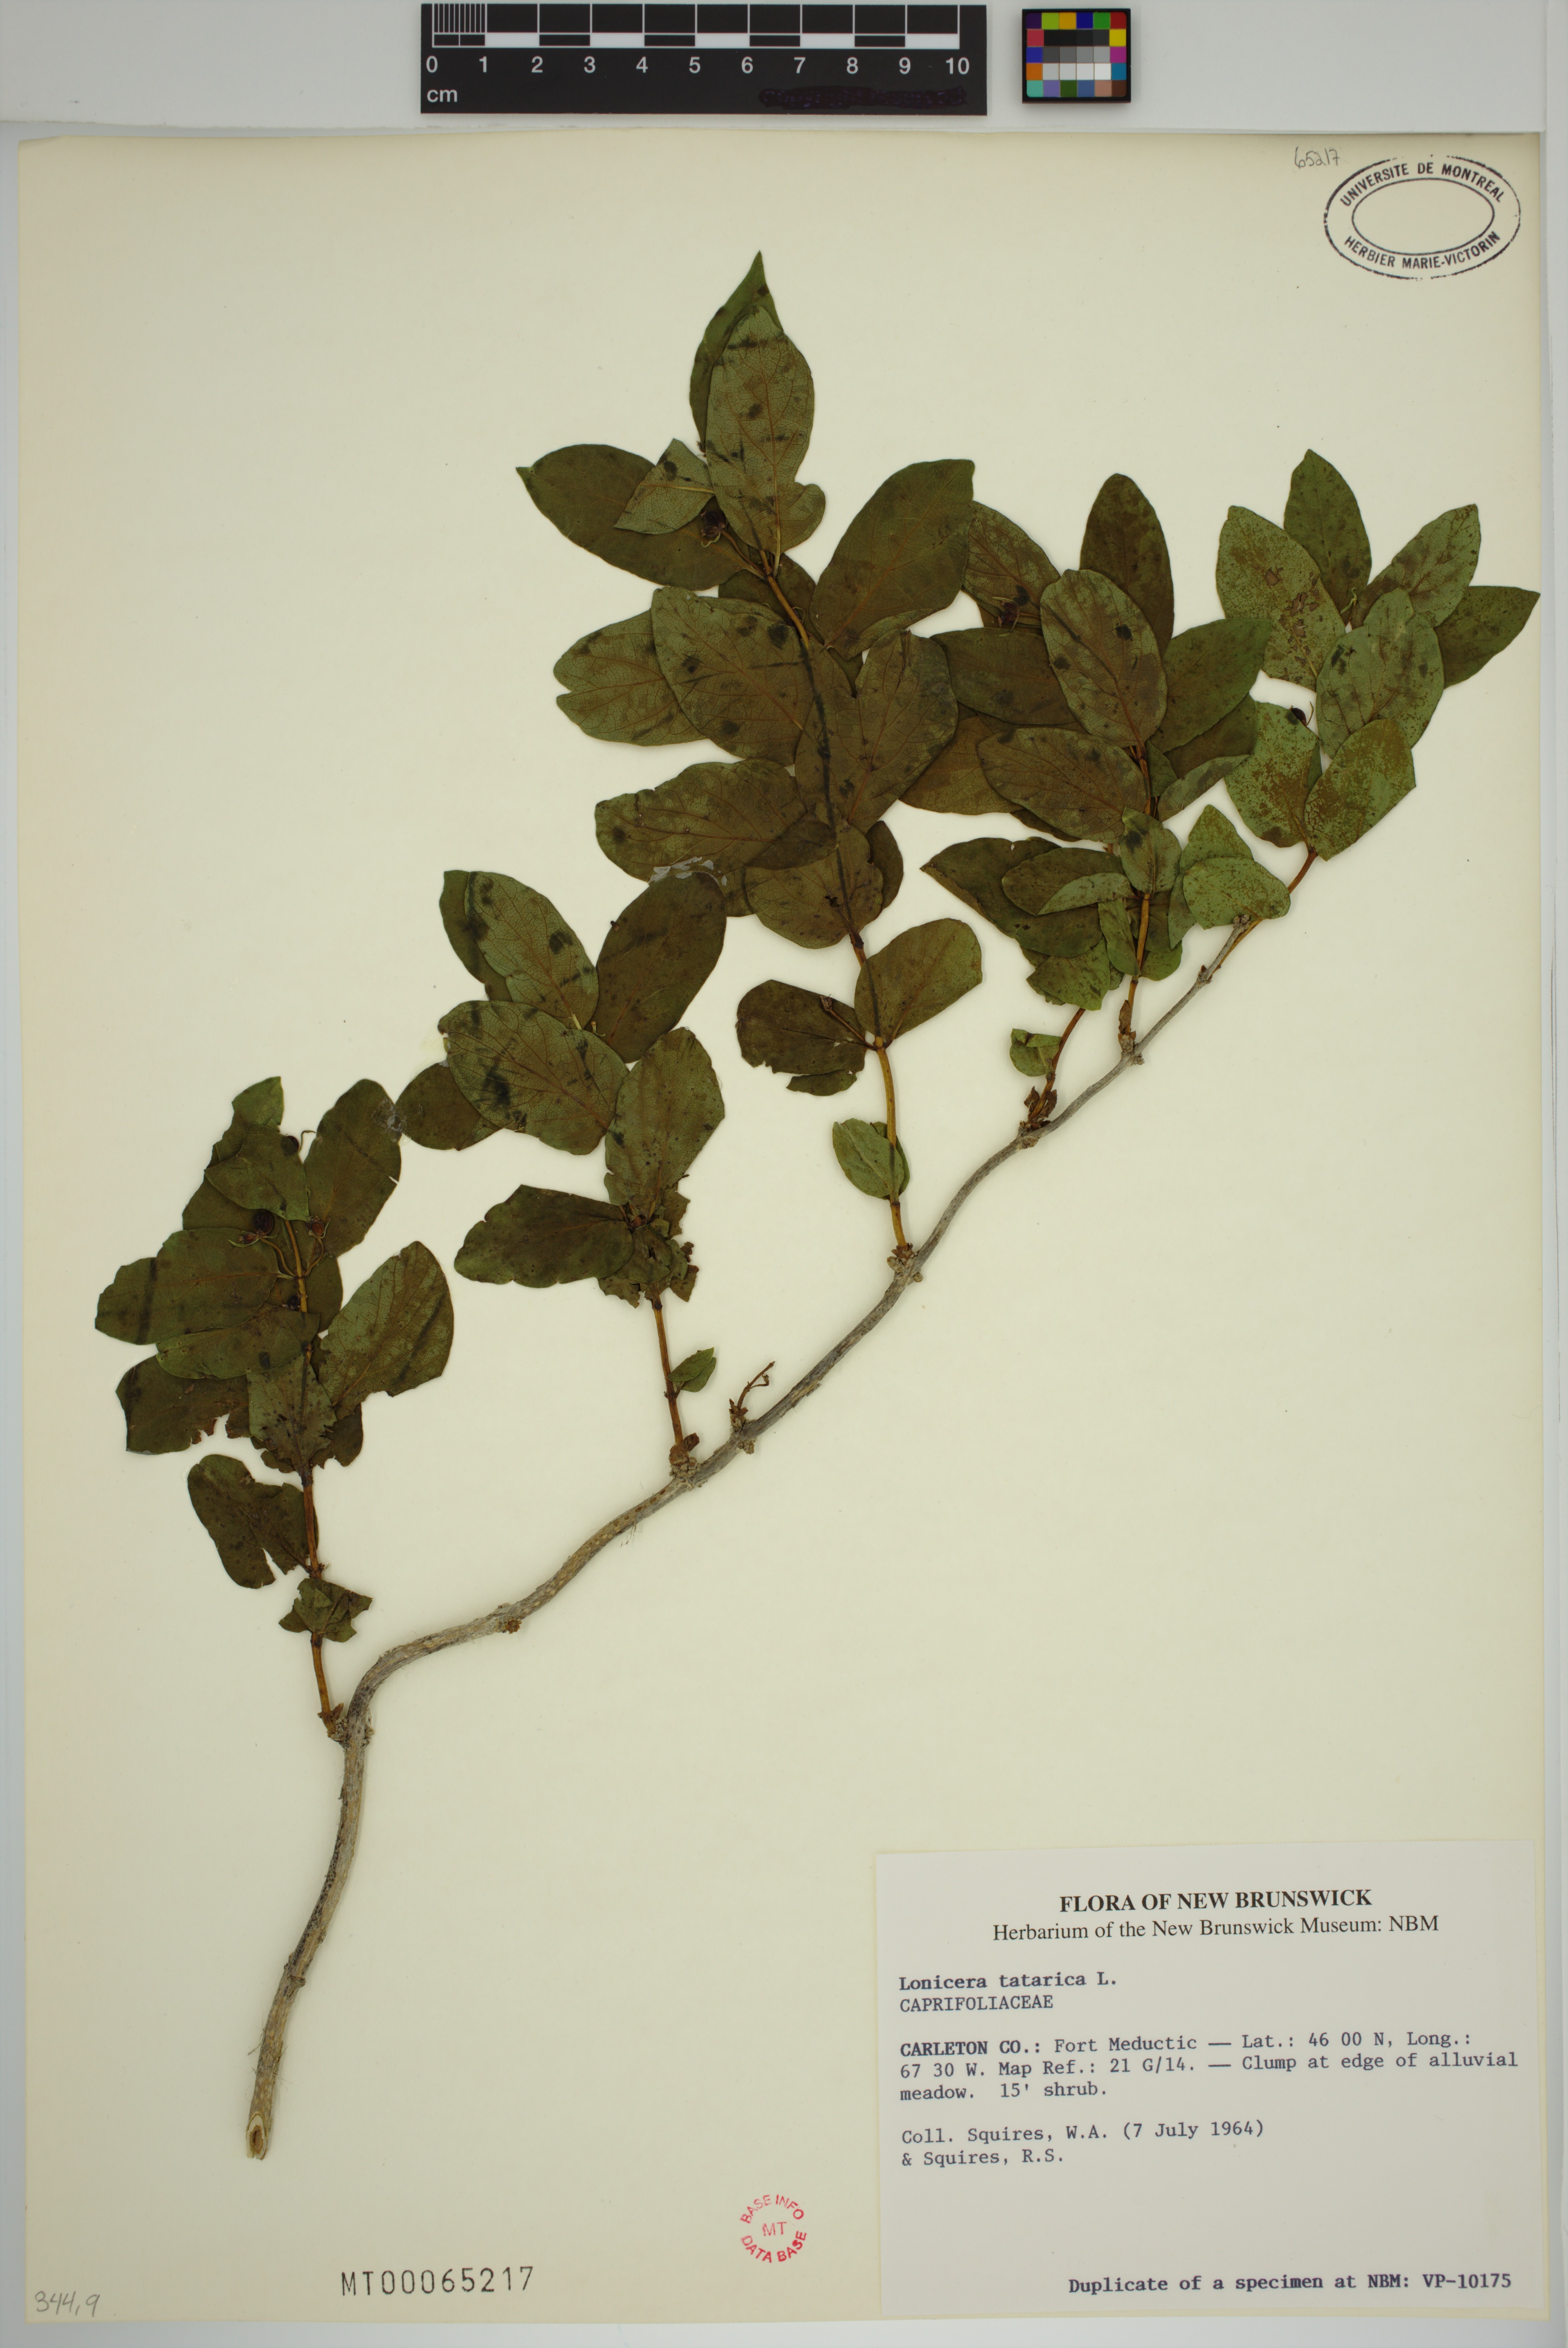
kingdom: Plantae
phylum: Tracheophyta
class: Magnoliopsida
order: Dipsacales
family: Caprifoliaceae
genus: Lonicera
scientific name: Lonicera tatarica
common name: Tatarian honeysuckle
